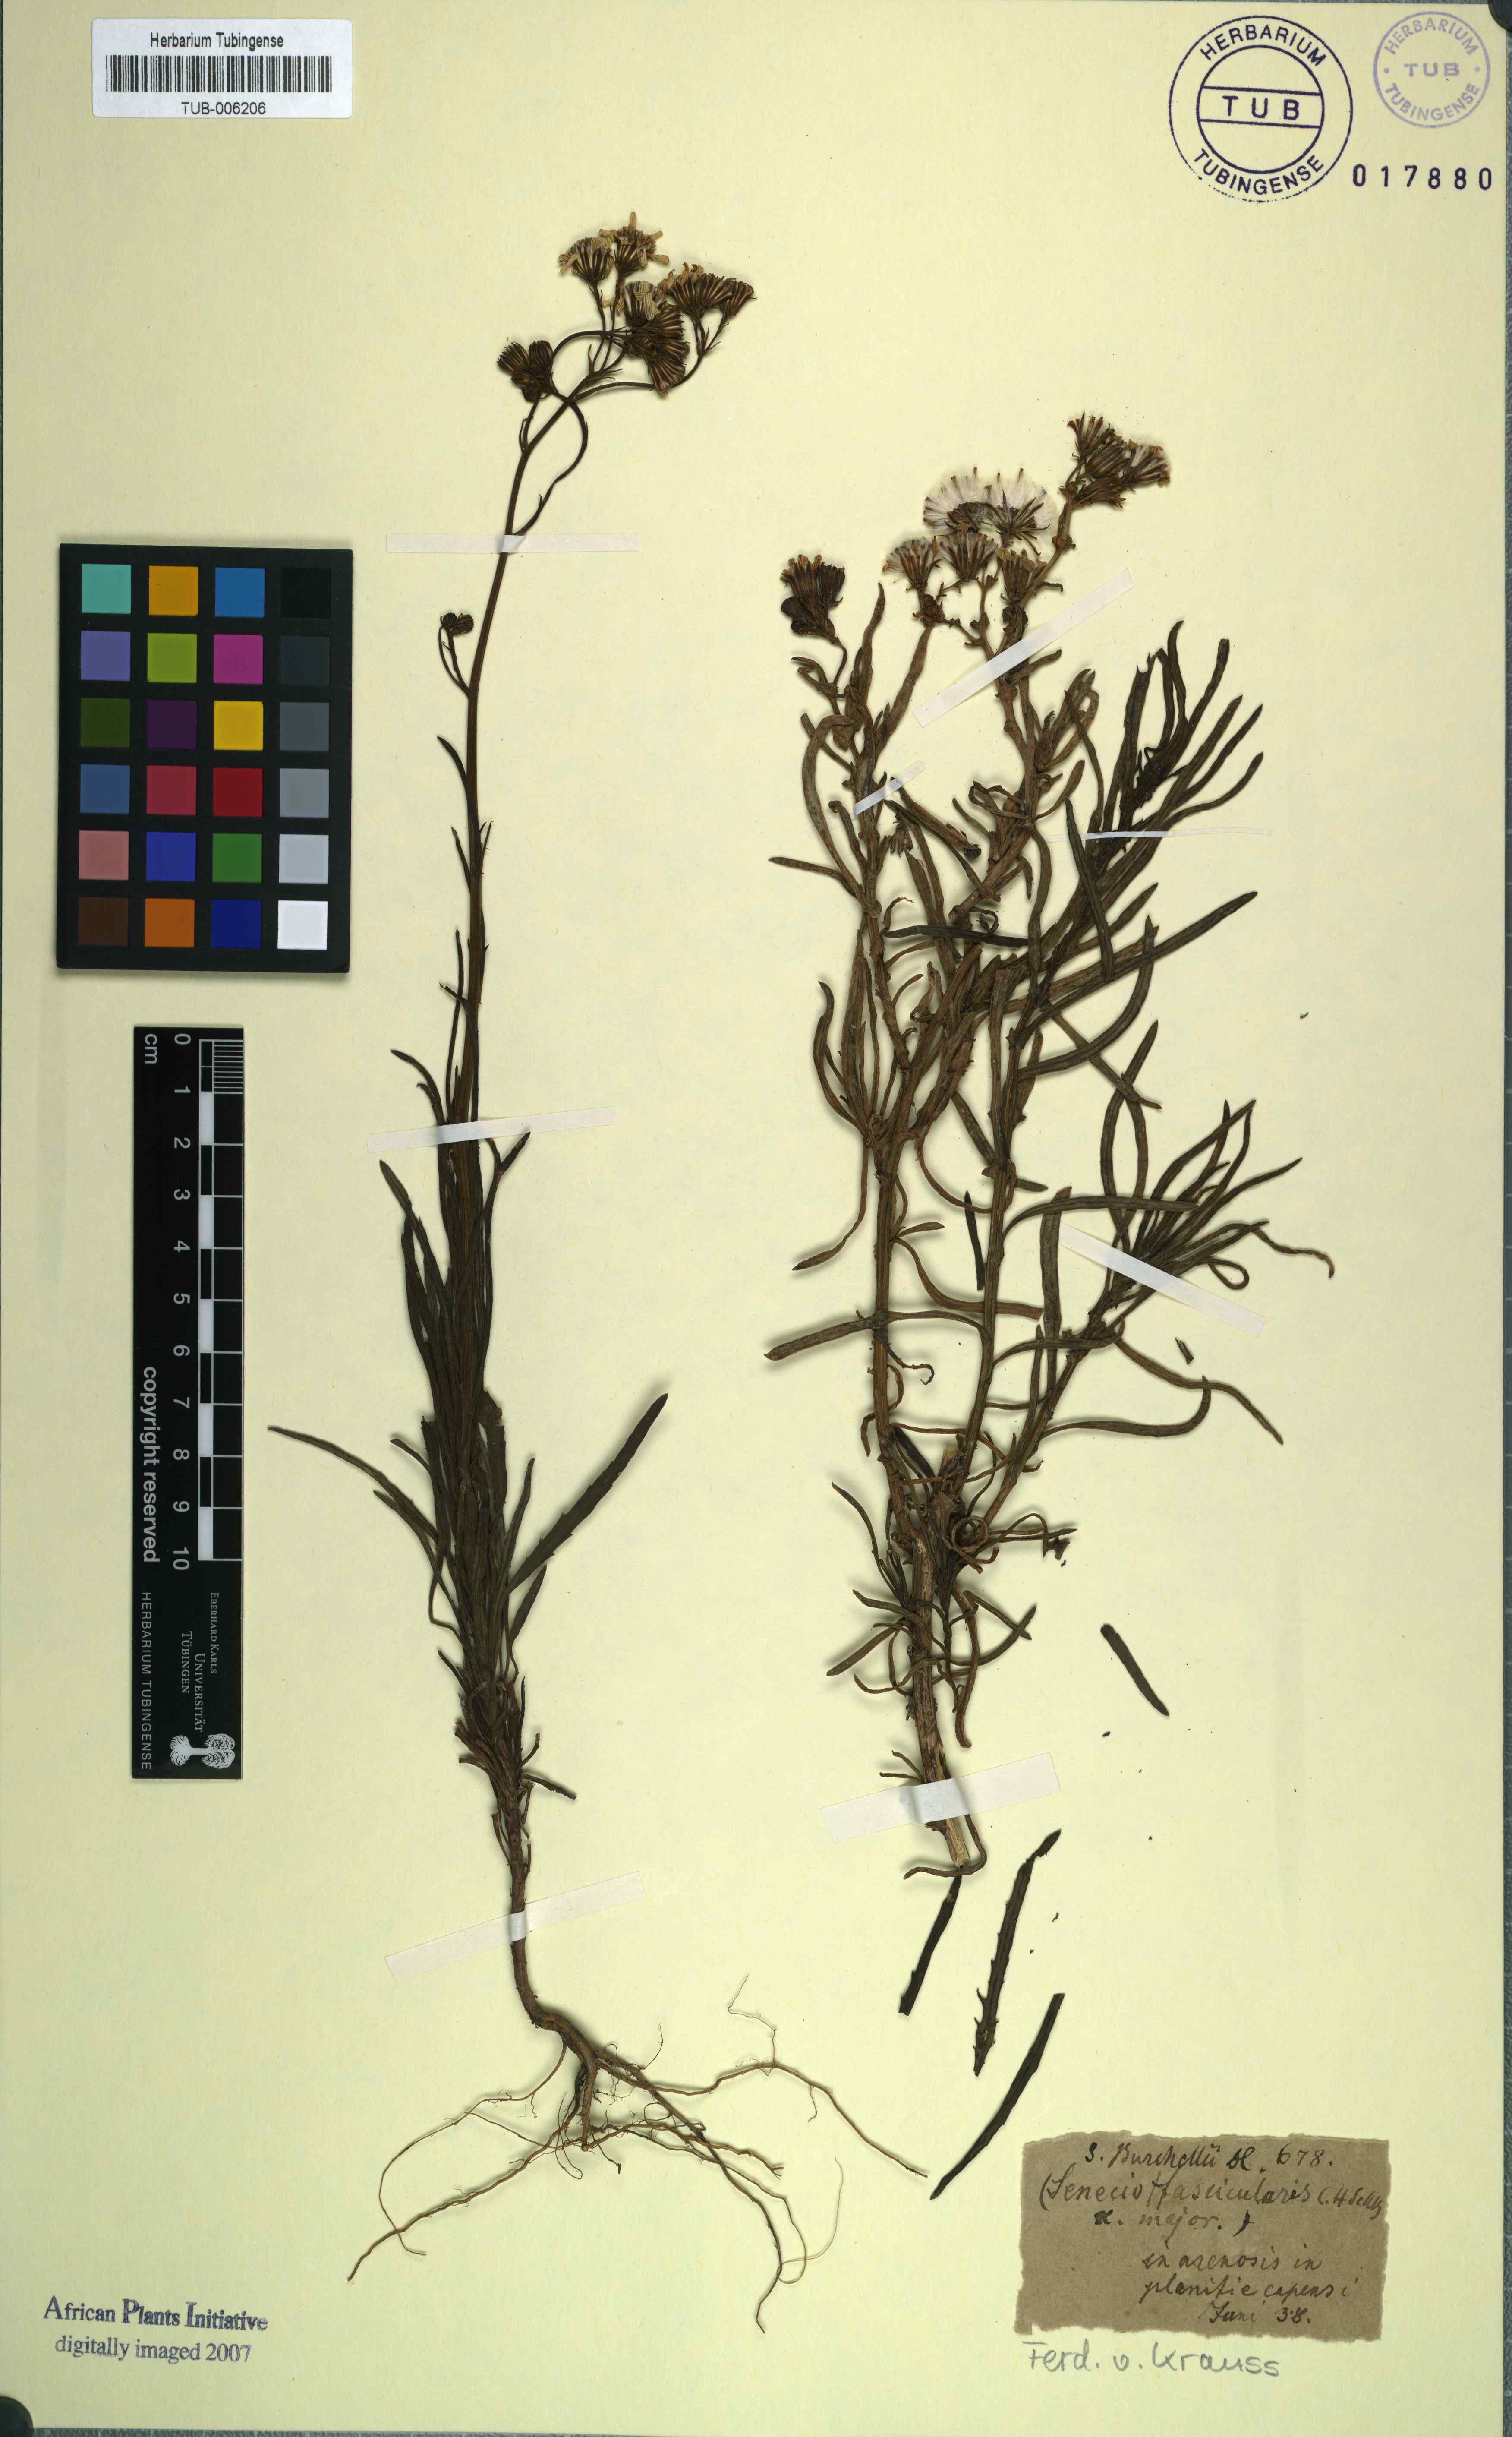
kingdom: Plantae
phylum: Tracheophyta
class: Magnoliopsida
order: Asterales
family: Asteraceae
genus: Senecio
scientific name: Senecio burchellii
